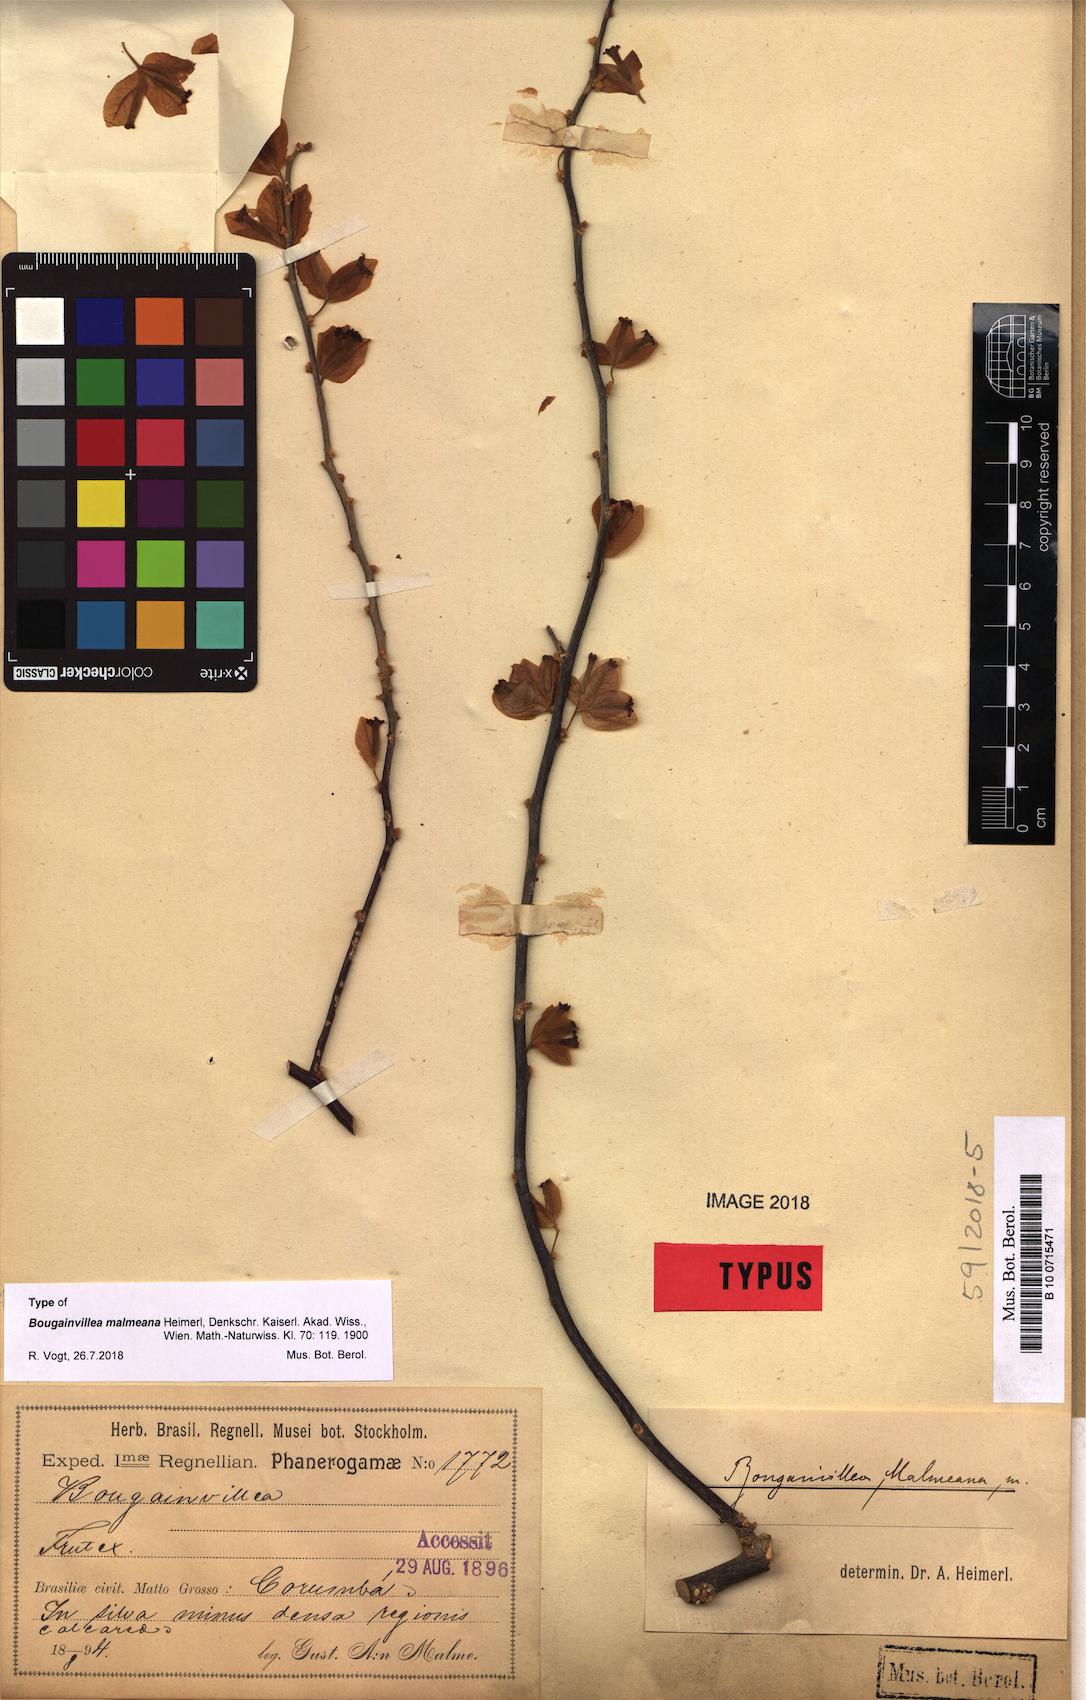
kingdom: Plantae
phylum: Tracheophyta
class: Magnoliopsida
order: Caryophyllales
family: Nyctaginaceae
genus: Bougainvillea
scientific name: Bougainvillea malmeana
